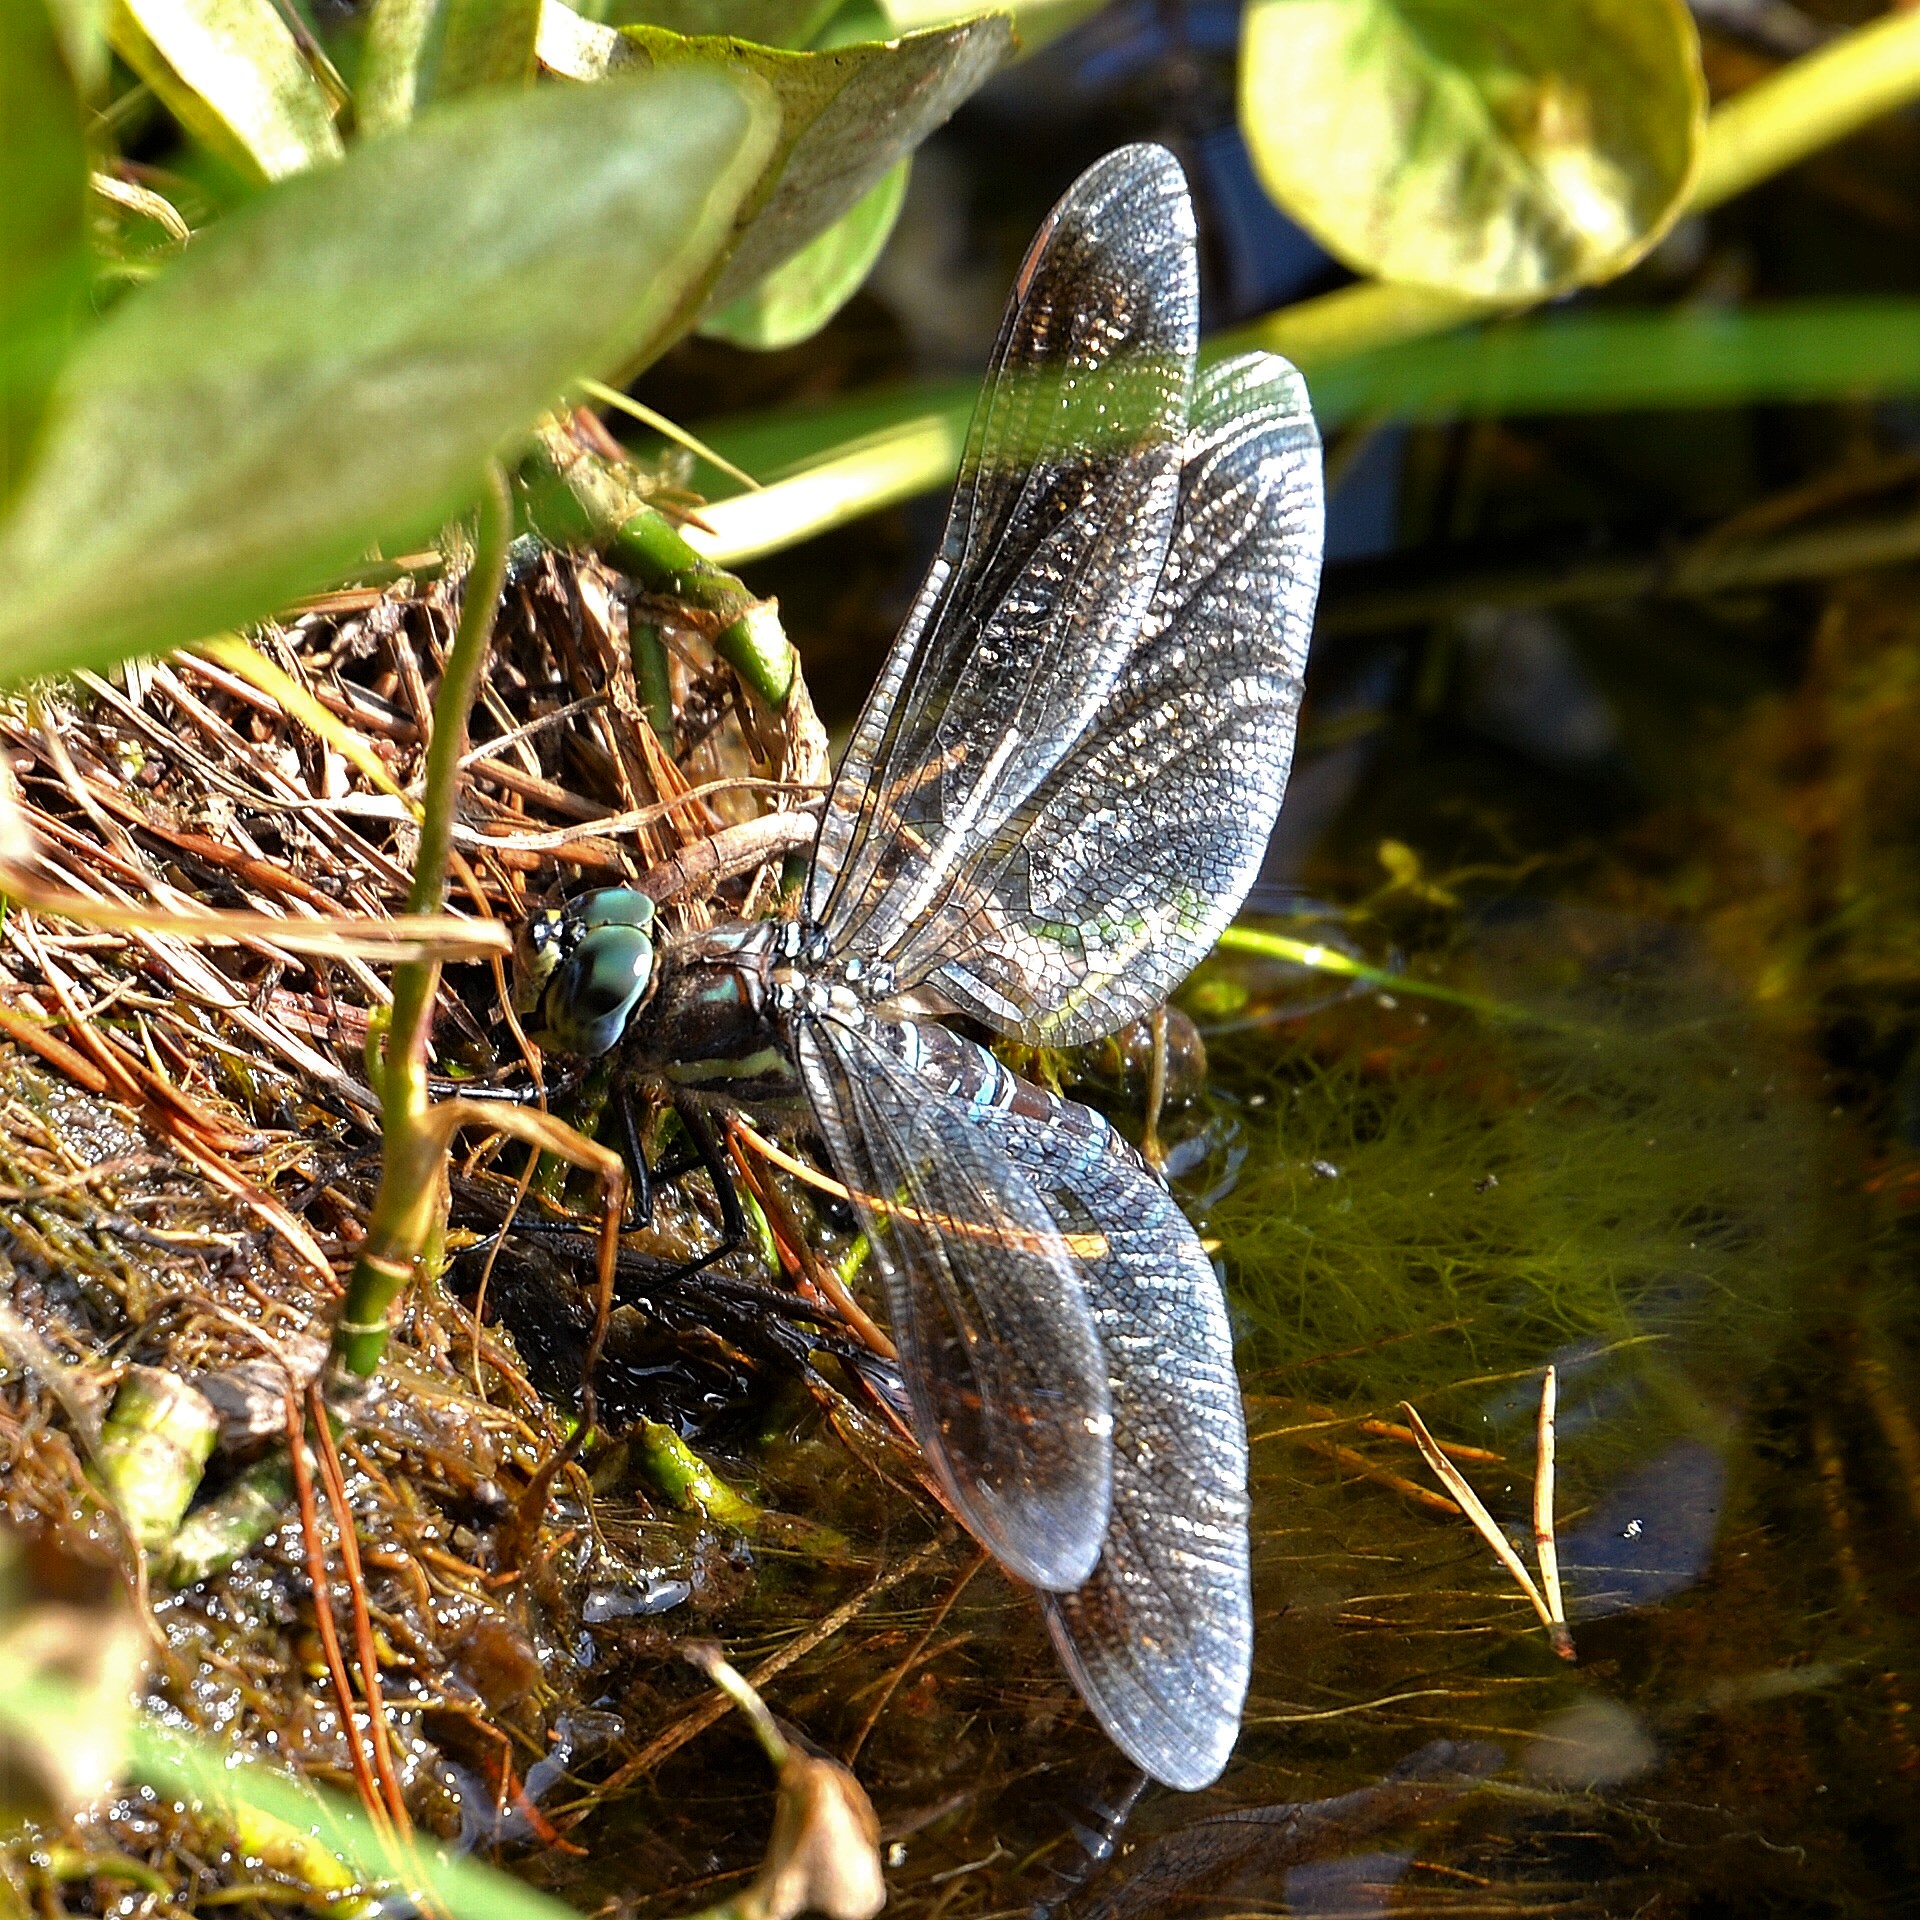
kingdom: Animalia
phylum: Arthropoda
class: Insecta
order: Odonata
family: Aeshnidae
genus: Aeshna
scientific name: Aeshna crenata
